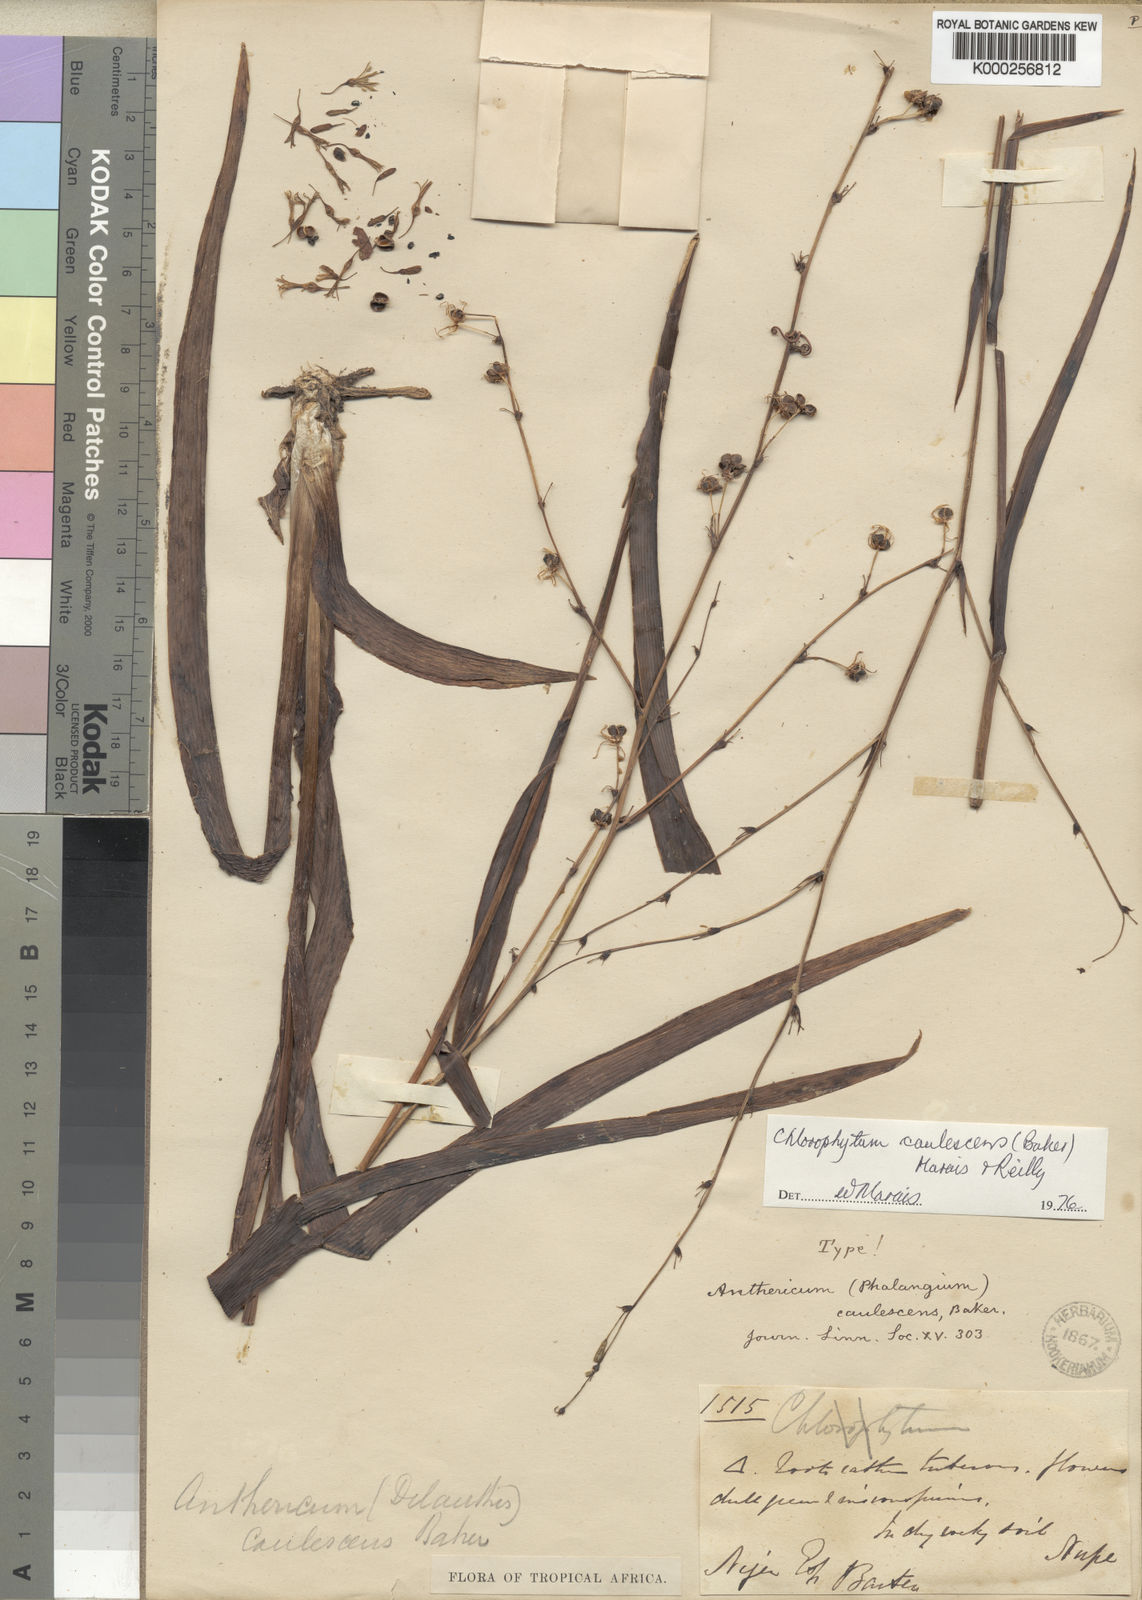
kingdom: Plantae
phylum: Tracheophyta
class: Liliopsida
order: Asparagales
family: Asparagaceae
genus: Chlorophytum
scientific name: Chlorophytum caulescens
